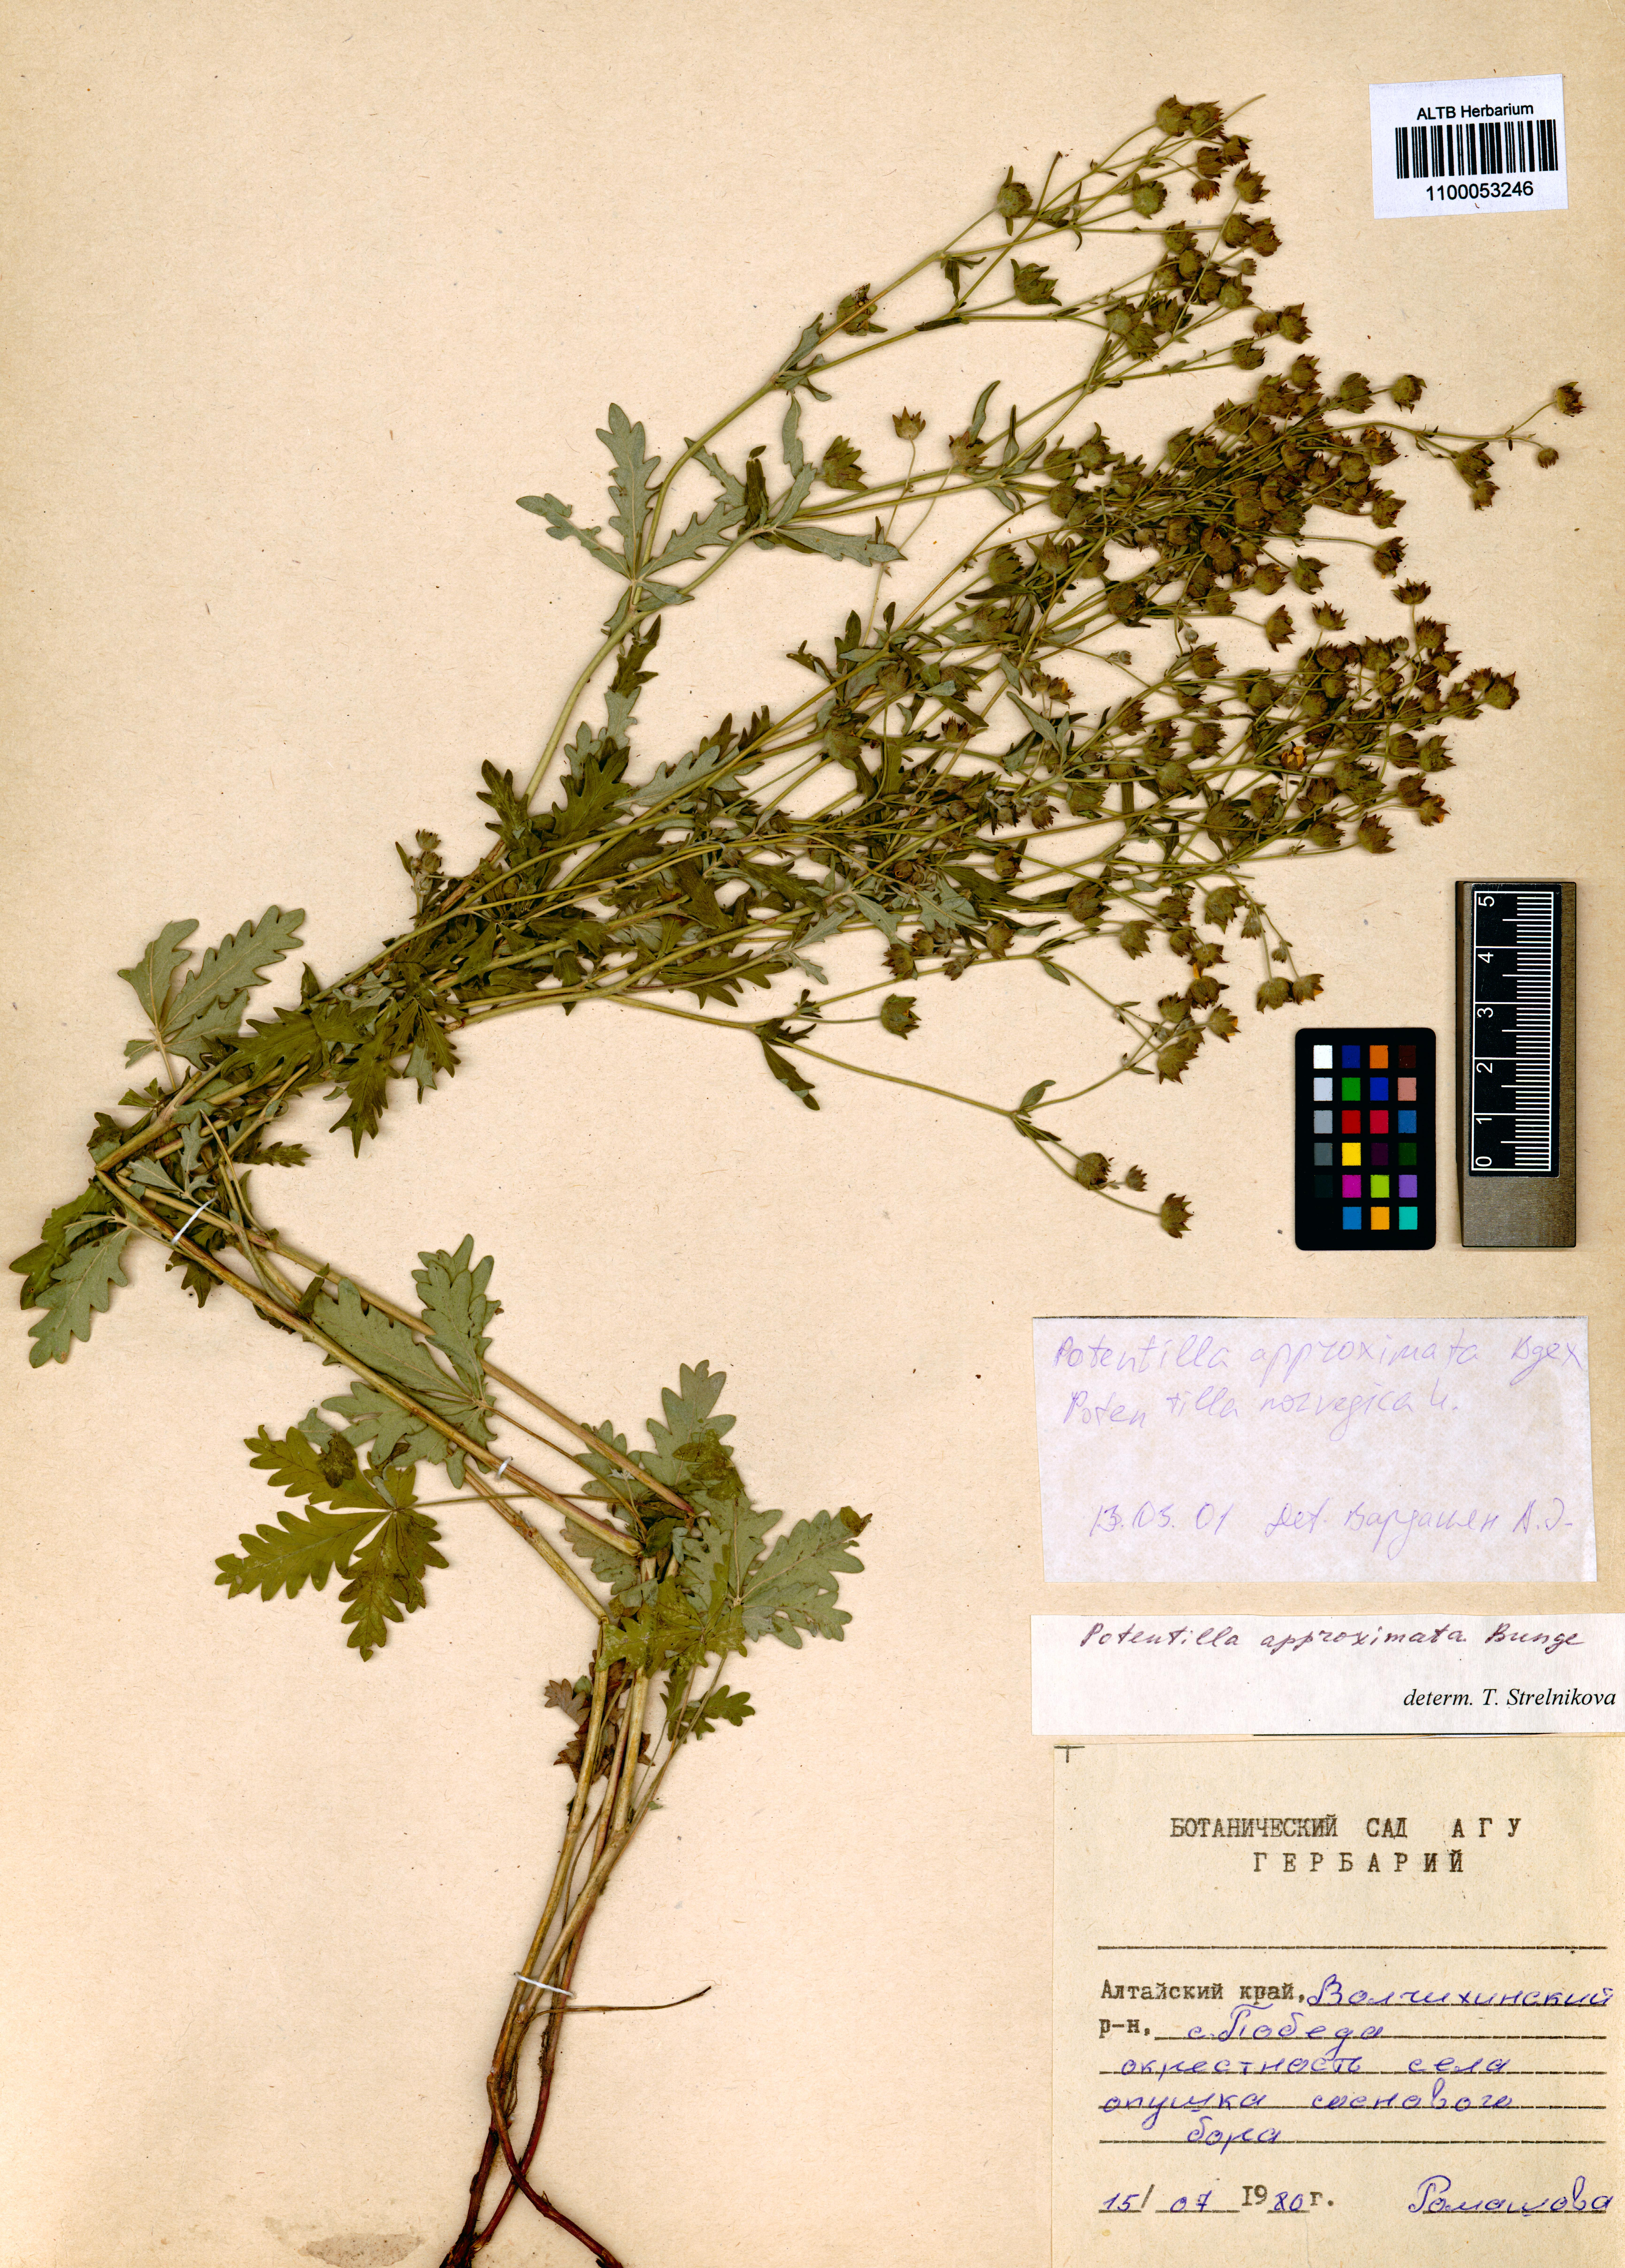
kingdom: Plantae
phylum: Tracheophyta
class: Magnoliopsida
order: Rosales
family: Rosaceae
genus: Potentilla
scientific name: Potentilla conferta
